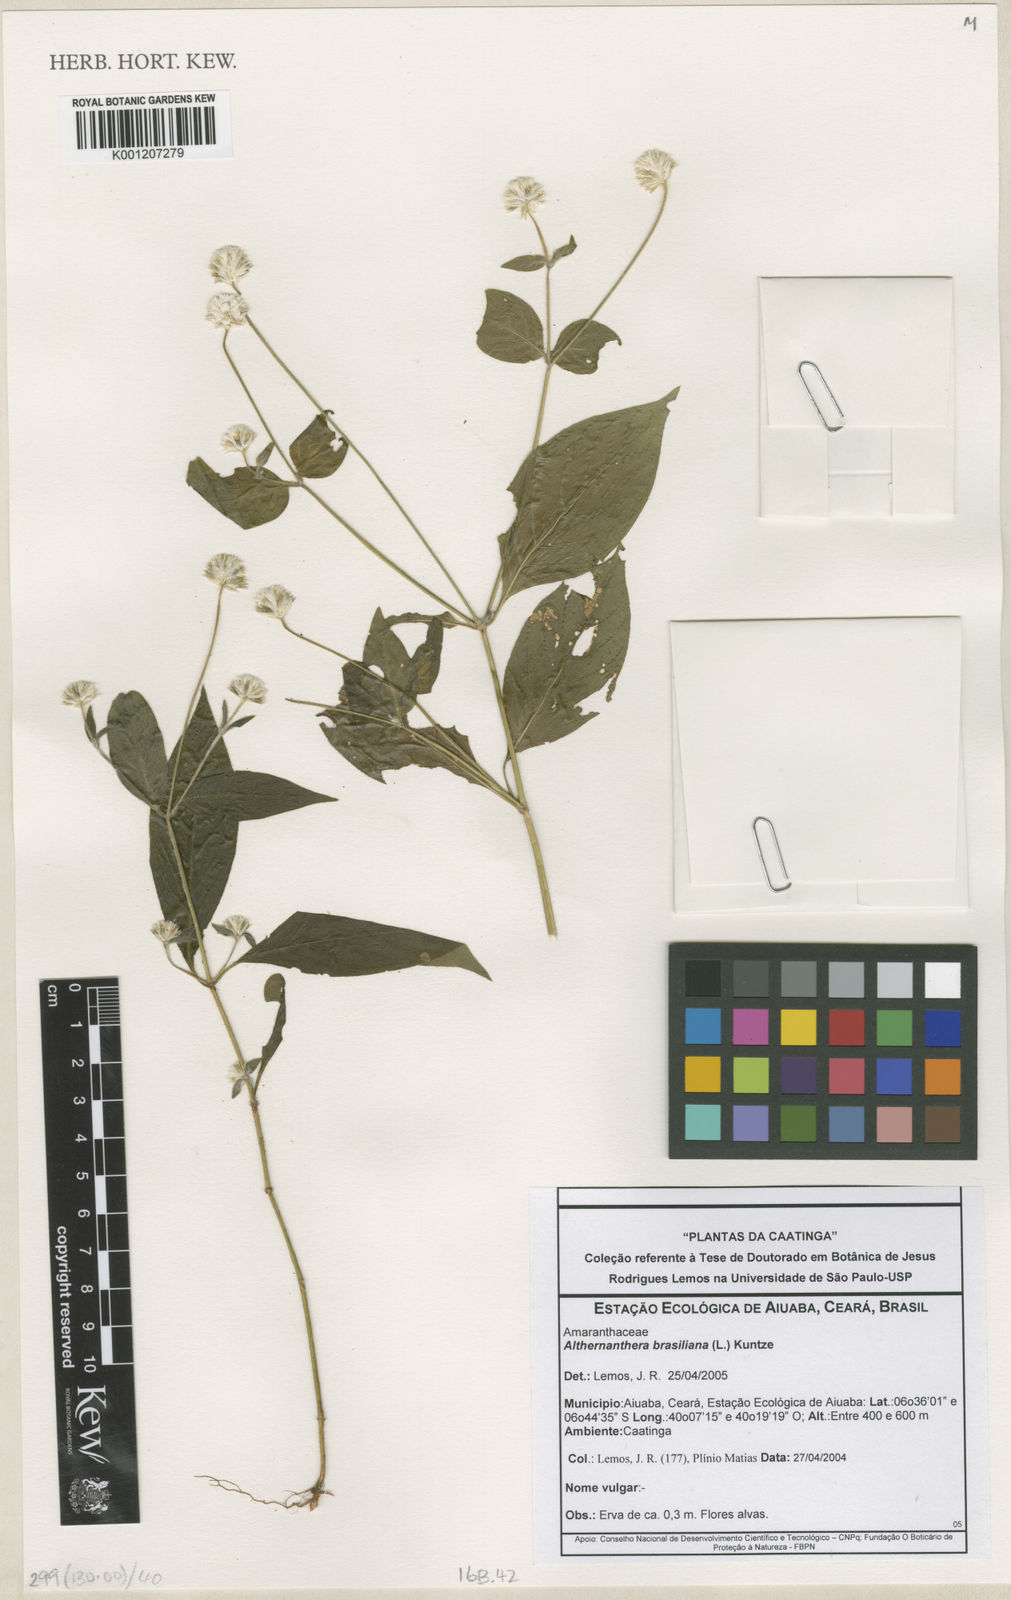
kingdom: Plantae
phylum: Tracheophyta
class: Magnoliopsida
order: Caryophyllales
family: Amaranthaceae
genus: Alternanthera
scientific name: Alternanthera brasiliana
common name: Brazilian joyweed
